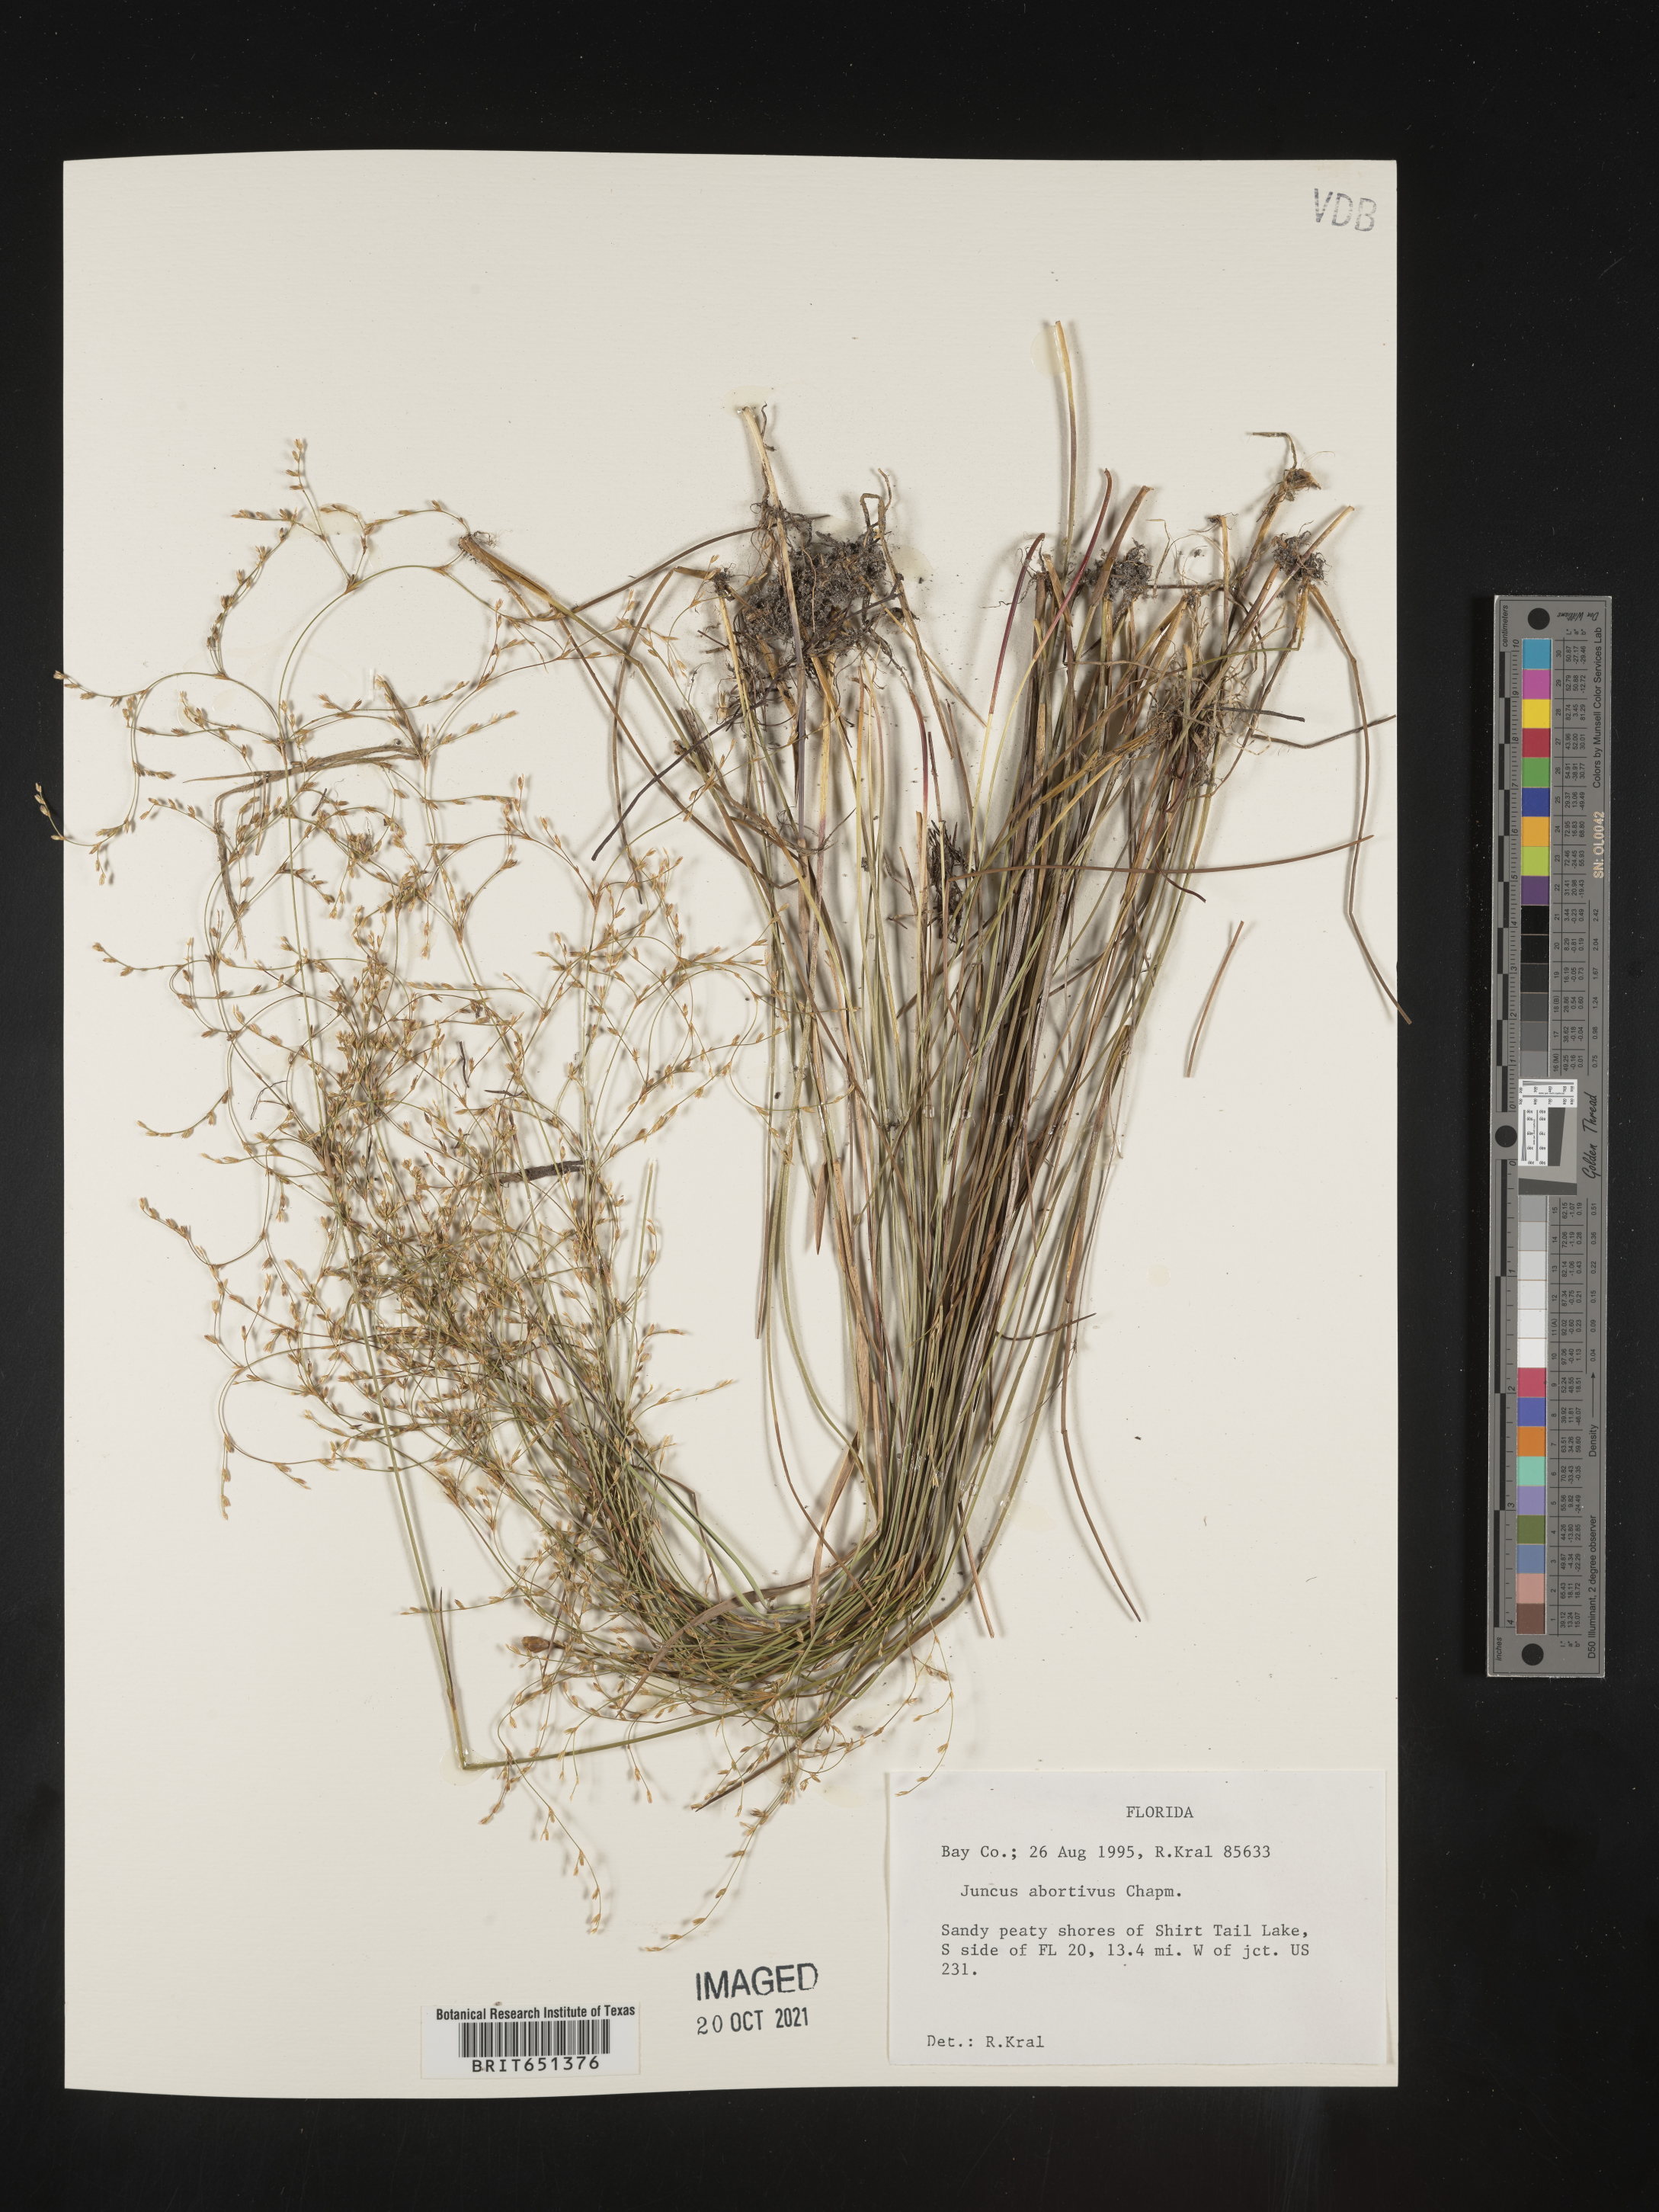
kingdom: Plantae
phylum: Tracheophyta
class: Liliopsida
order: Poales
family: Juncaceae
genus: Juncus
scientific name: Juncus abortivus
